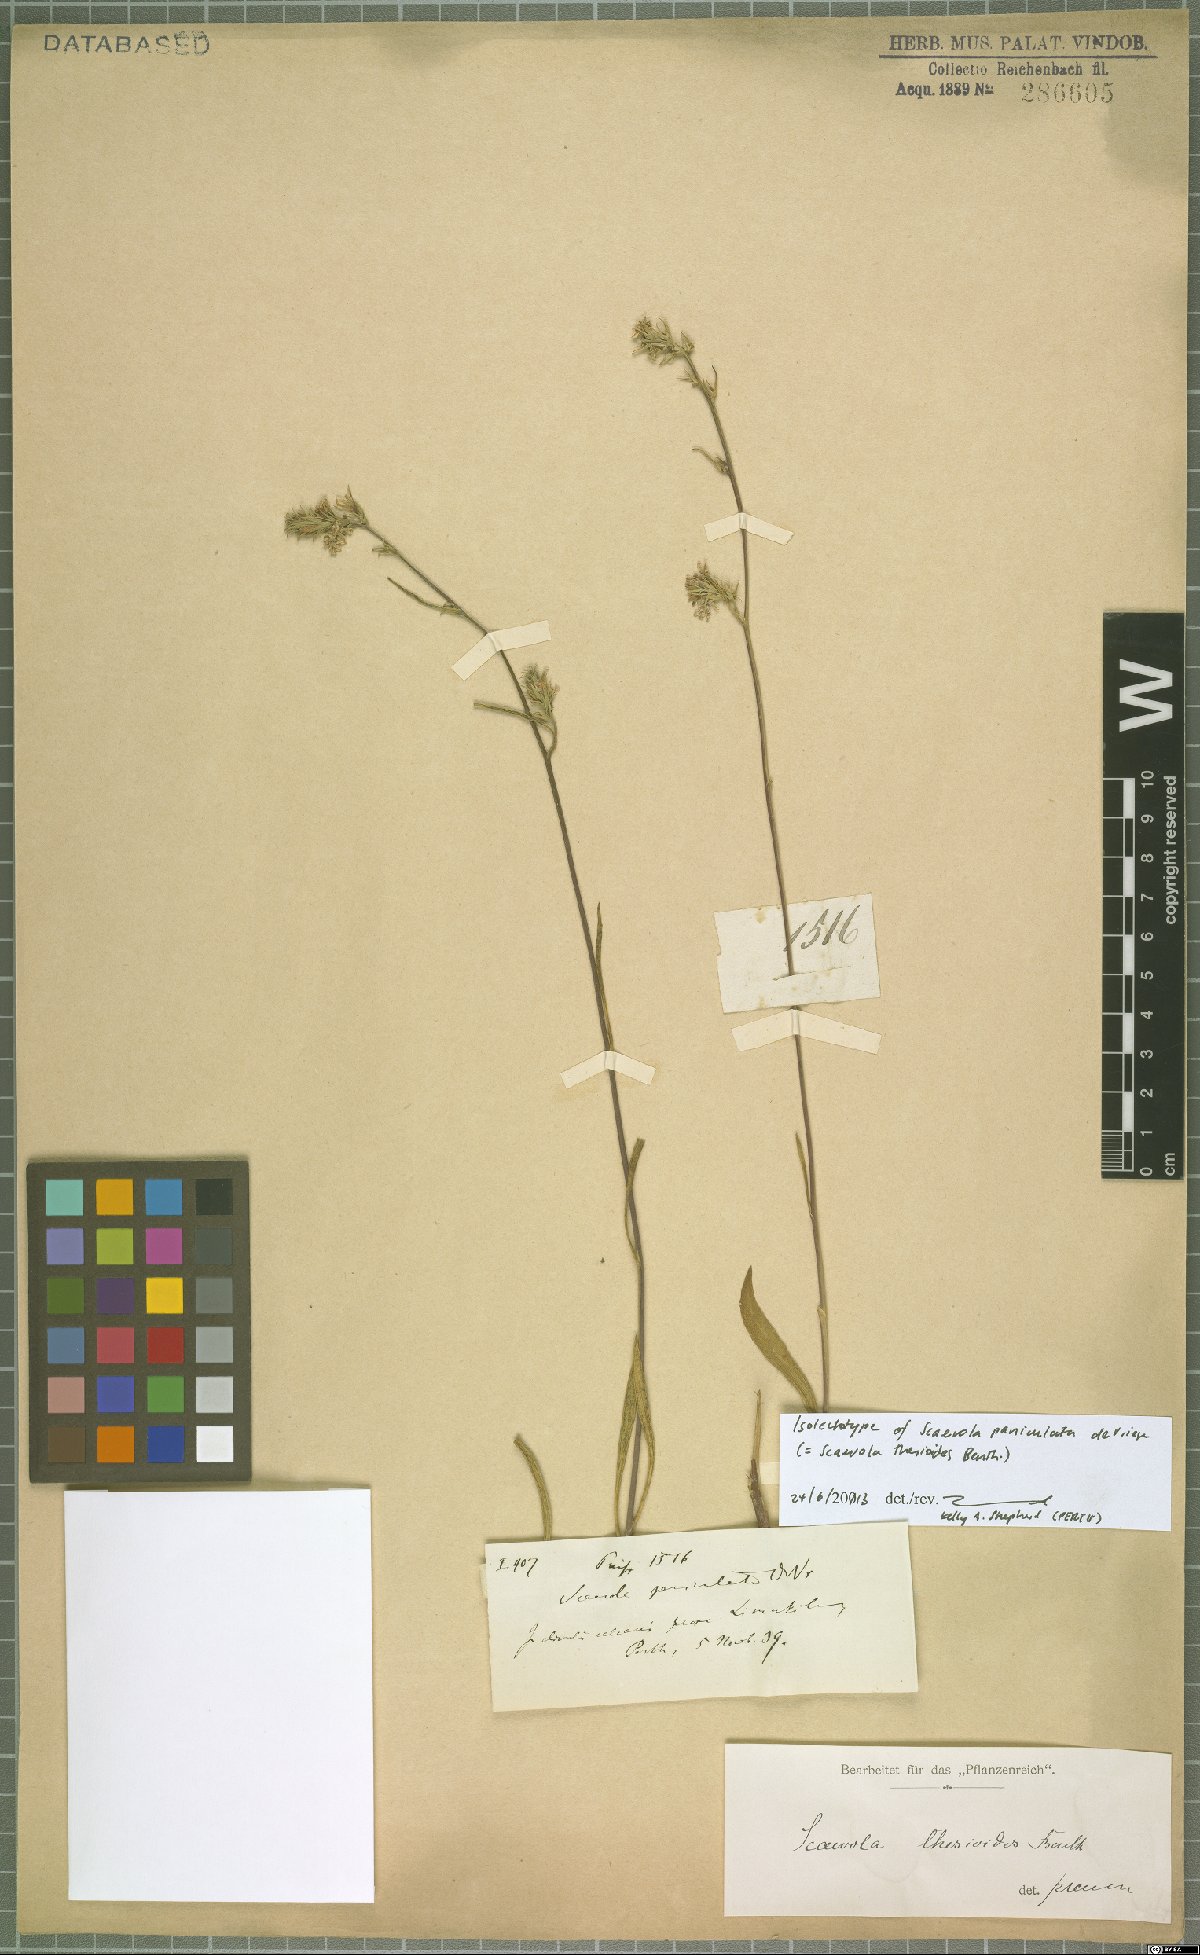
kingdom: Plantae
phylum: Tracheophyta
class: Magnoliopsida
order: Asterales
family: Goodeniaceae
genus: Scaevola
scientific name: Scaevola thesioides
